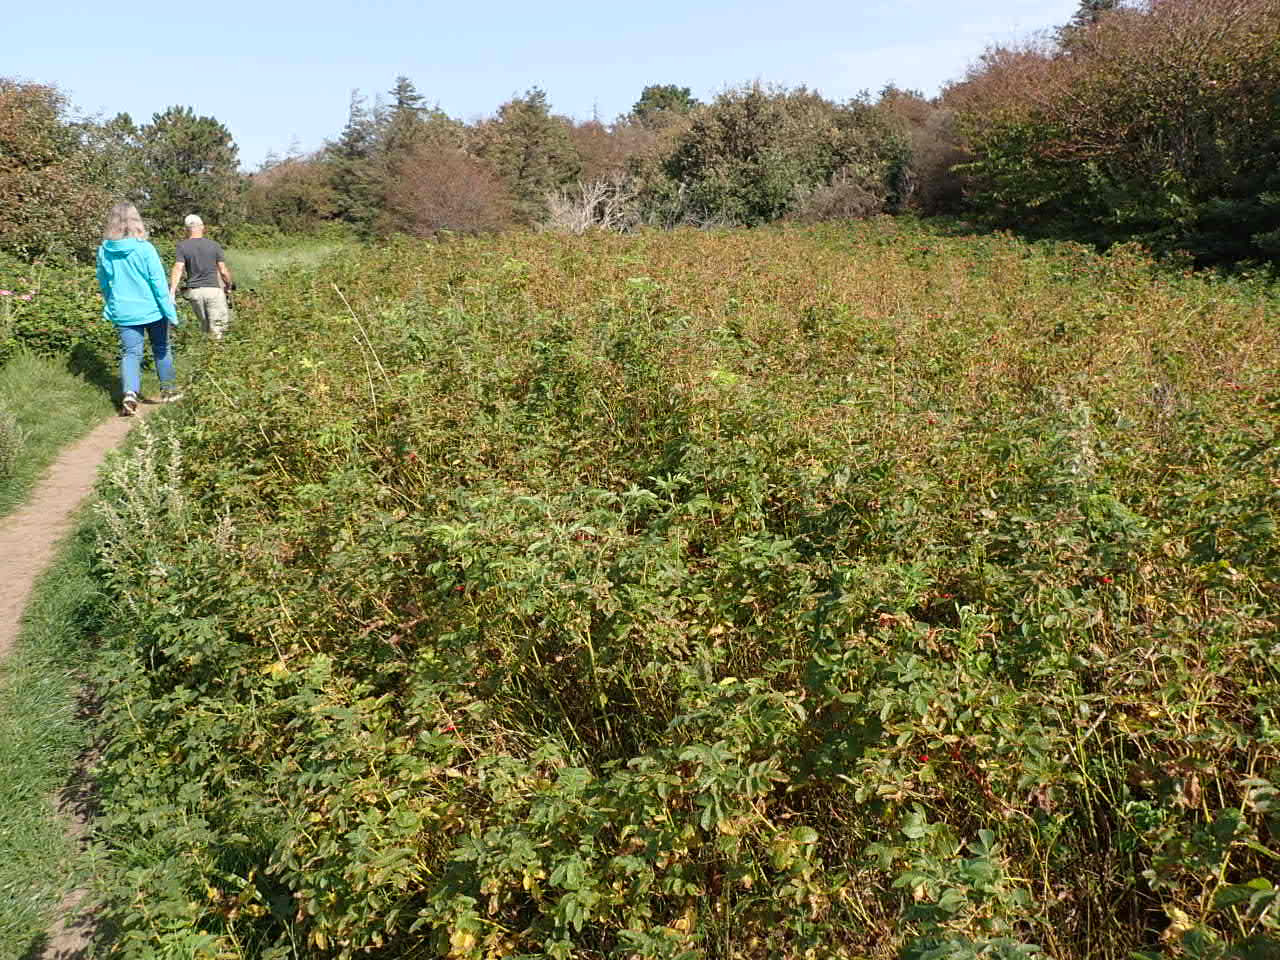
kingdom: Plantae
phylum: Tracheophyta
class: Magnoliopsida
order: Rosales
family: Rosaceae
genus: Rosa
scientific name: Rosa
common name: Roseslægten
